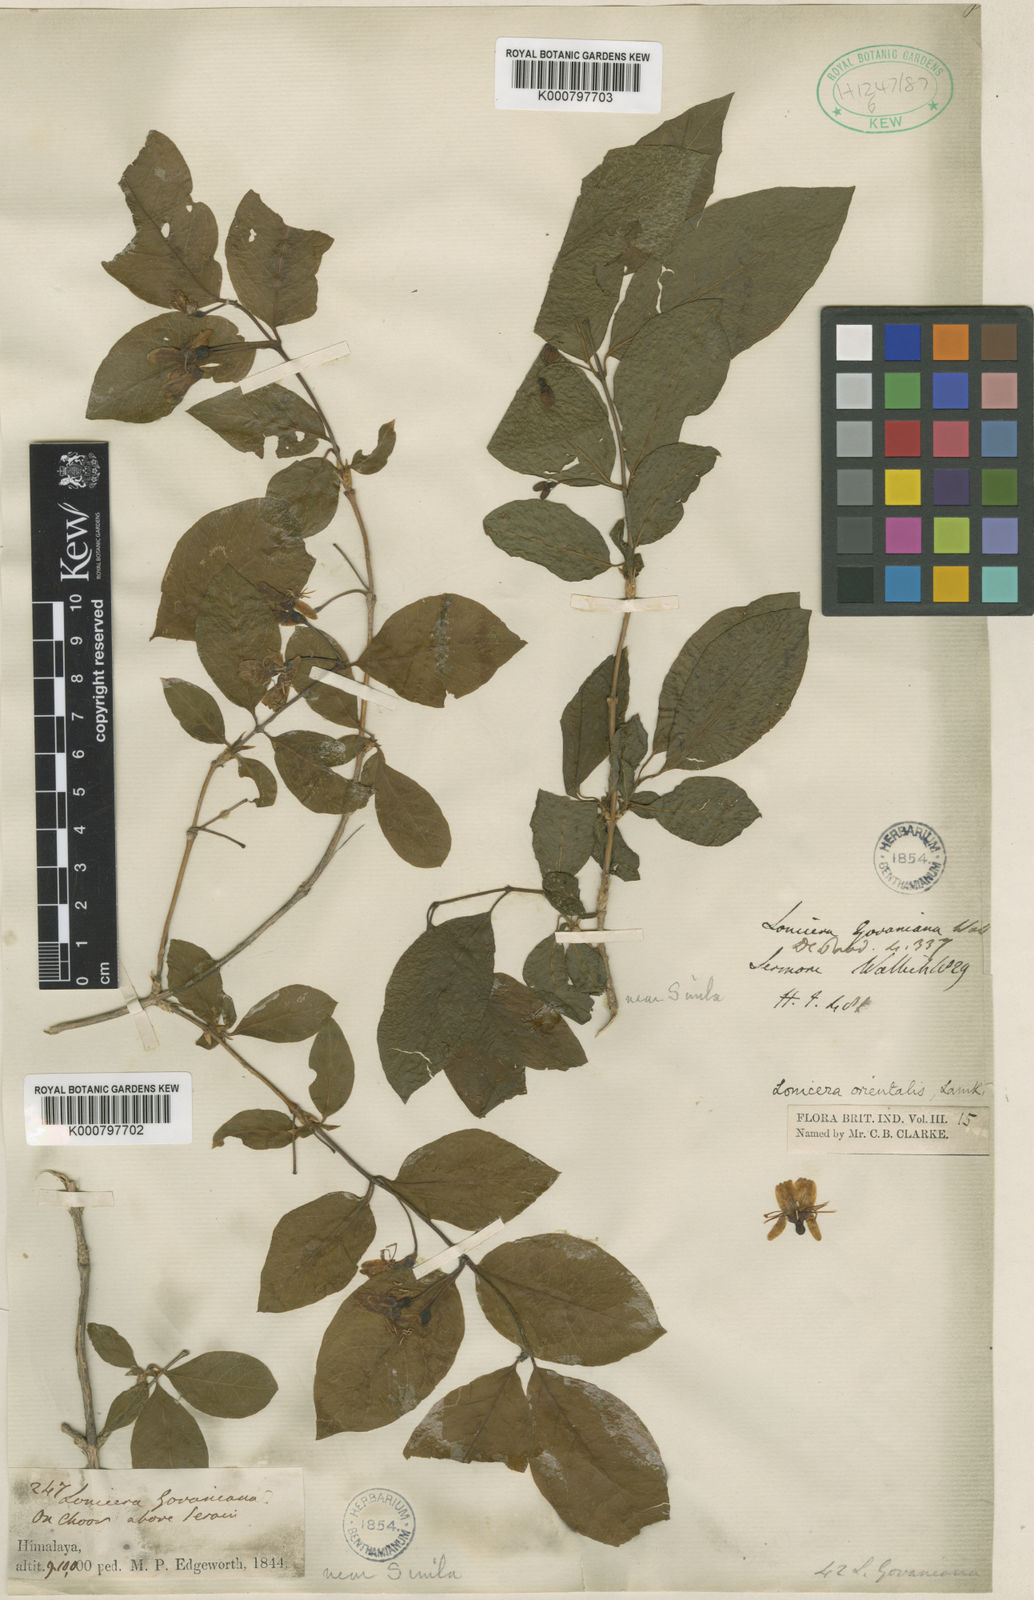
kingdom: Plantae
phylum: Tracheophyta
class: Magnoliopsida
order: Dipsacales
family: Caprifoliaceae
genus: Lonicera
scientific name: Lonicera caucasica
